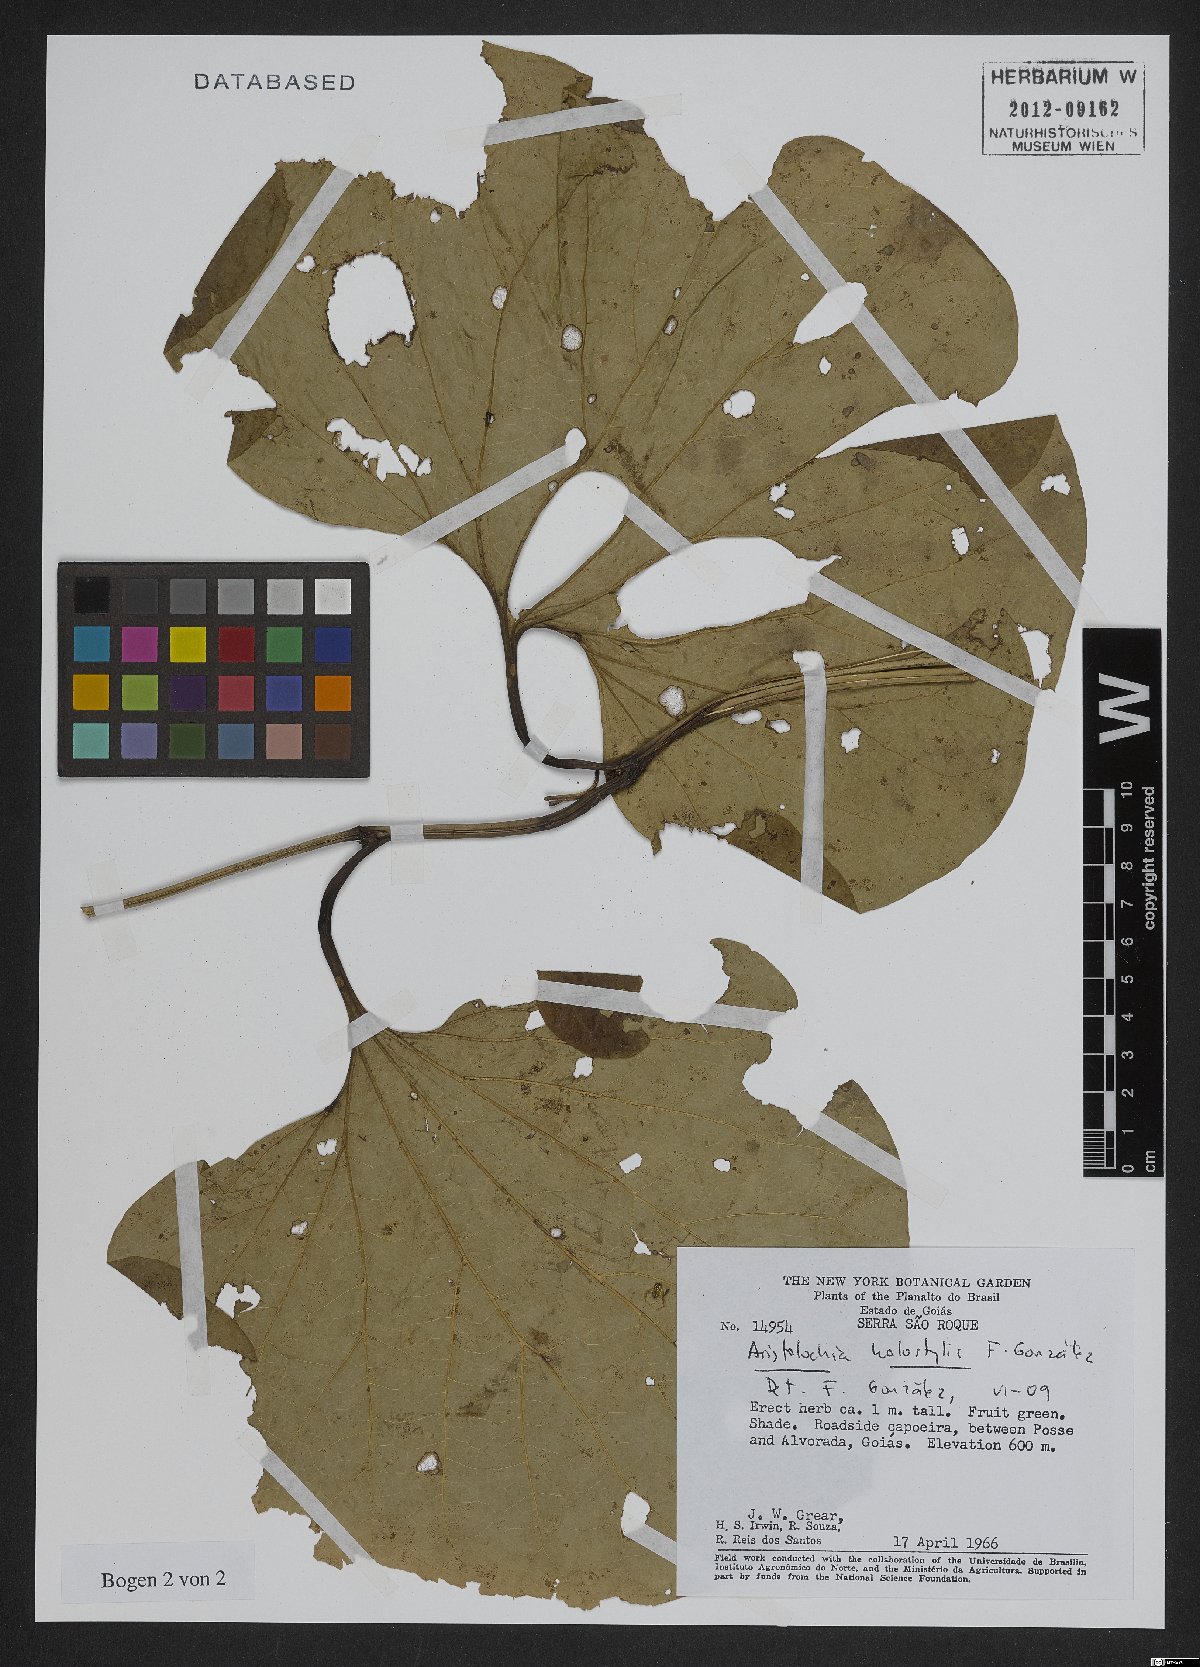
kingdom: Plantae
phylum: Tracheophyta
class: Magnoliopsida
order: Piperales
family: Aristolochiaceae
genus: Aristolochia
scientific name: Aristolochia holostylis
